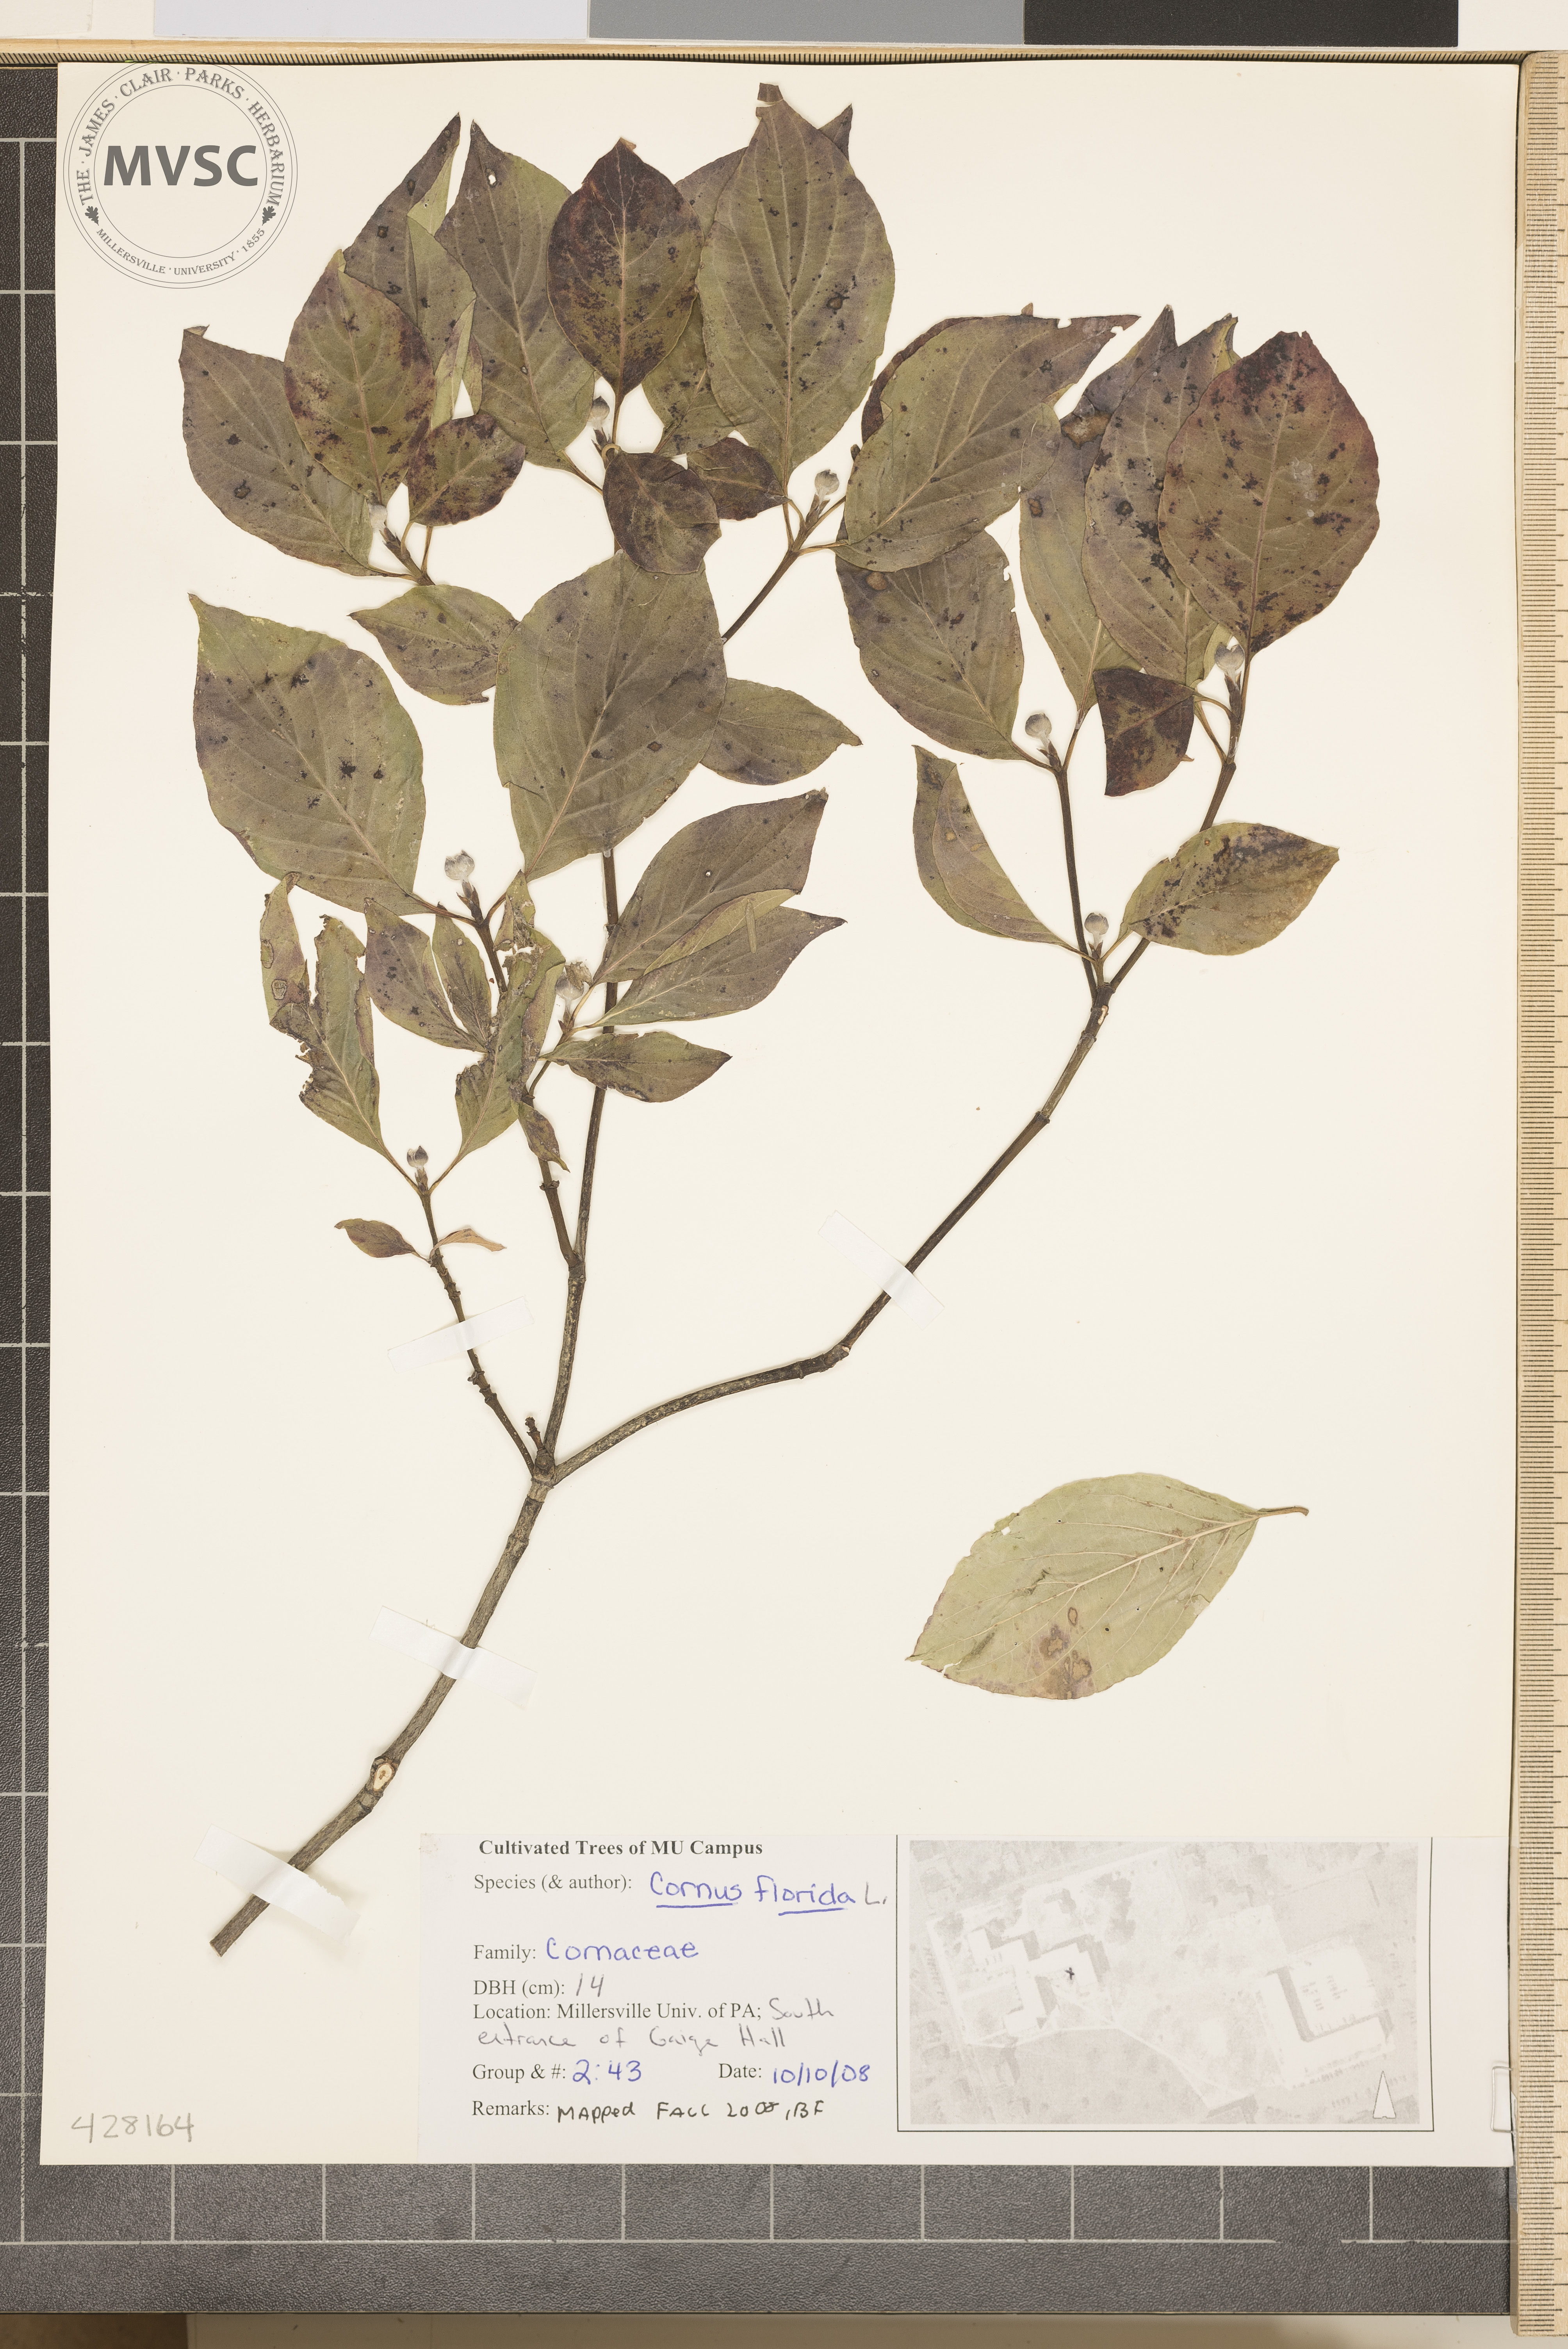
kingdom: Plantae
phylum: Tracheophyta
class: Magnoliopsida
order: Cornales
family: Cornaceae
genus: Cornus
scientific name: Cornus florida
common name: Flowering Dogwood
